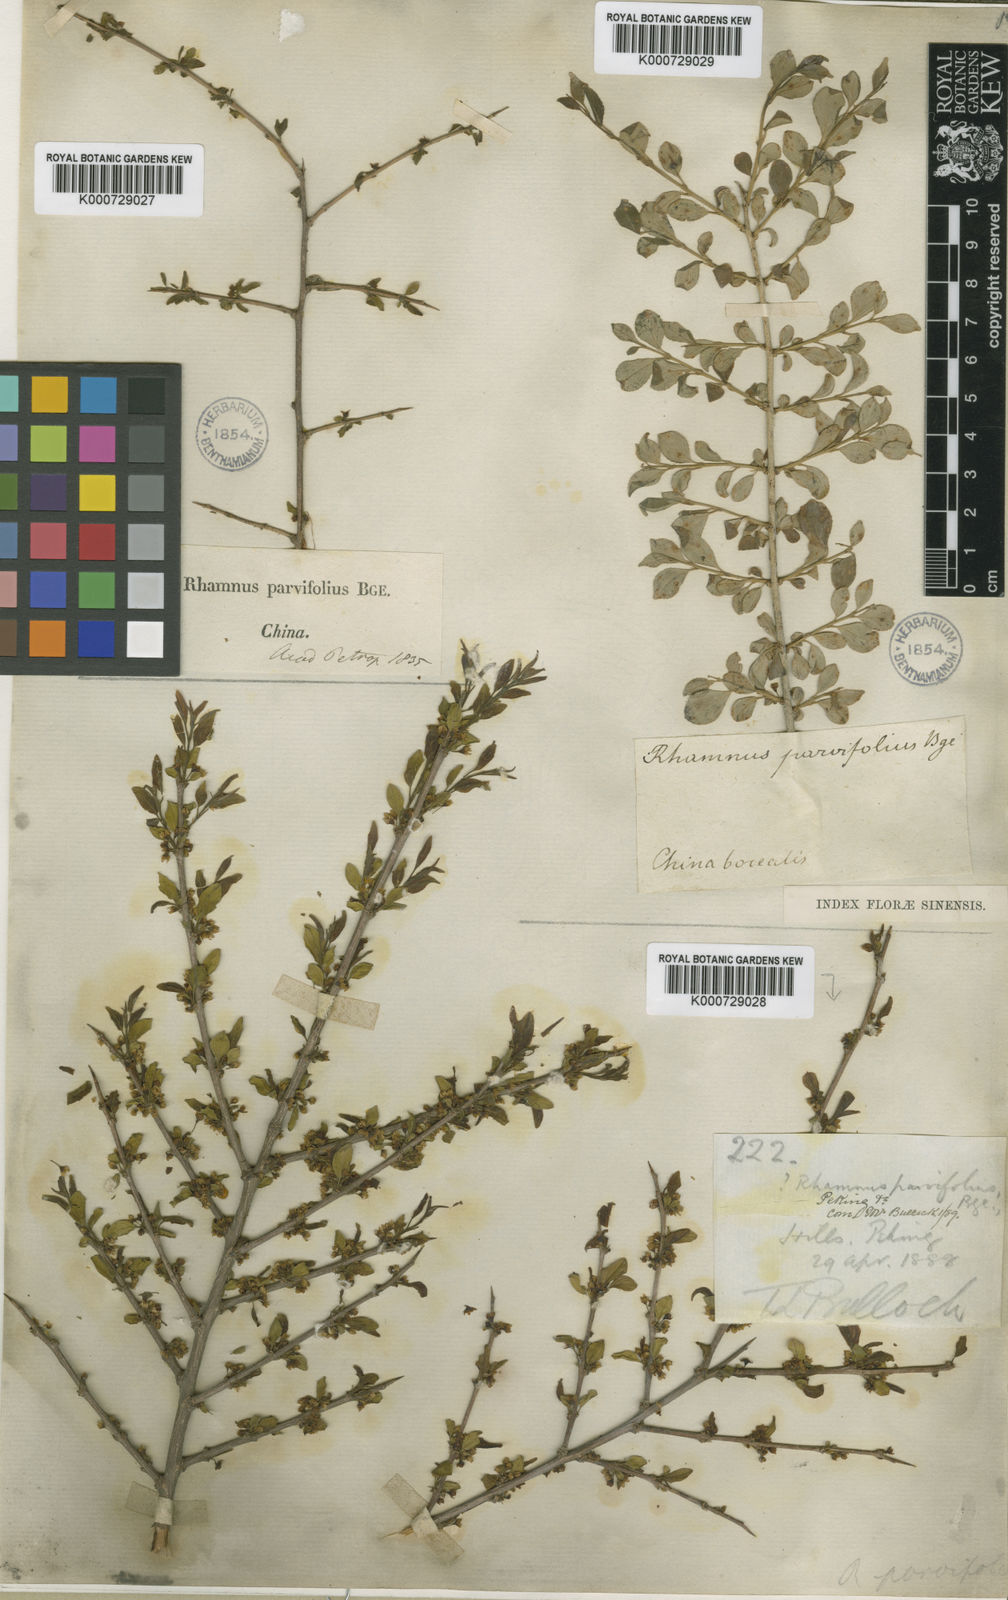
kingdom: Plantae
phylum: Tracheophyta
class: Magnoliopsida
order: Rosales
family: Rhamnaceae
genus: Rhamnus
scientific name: Rhamnus parvifolia
